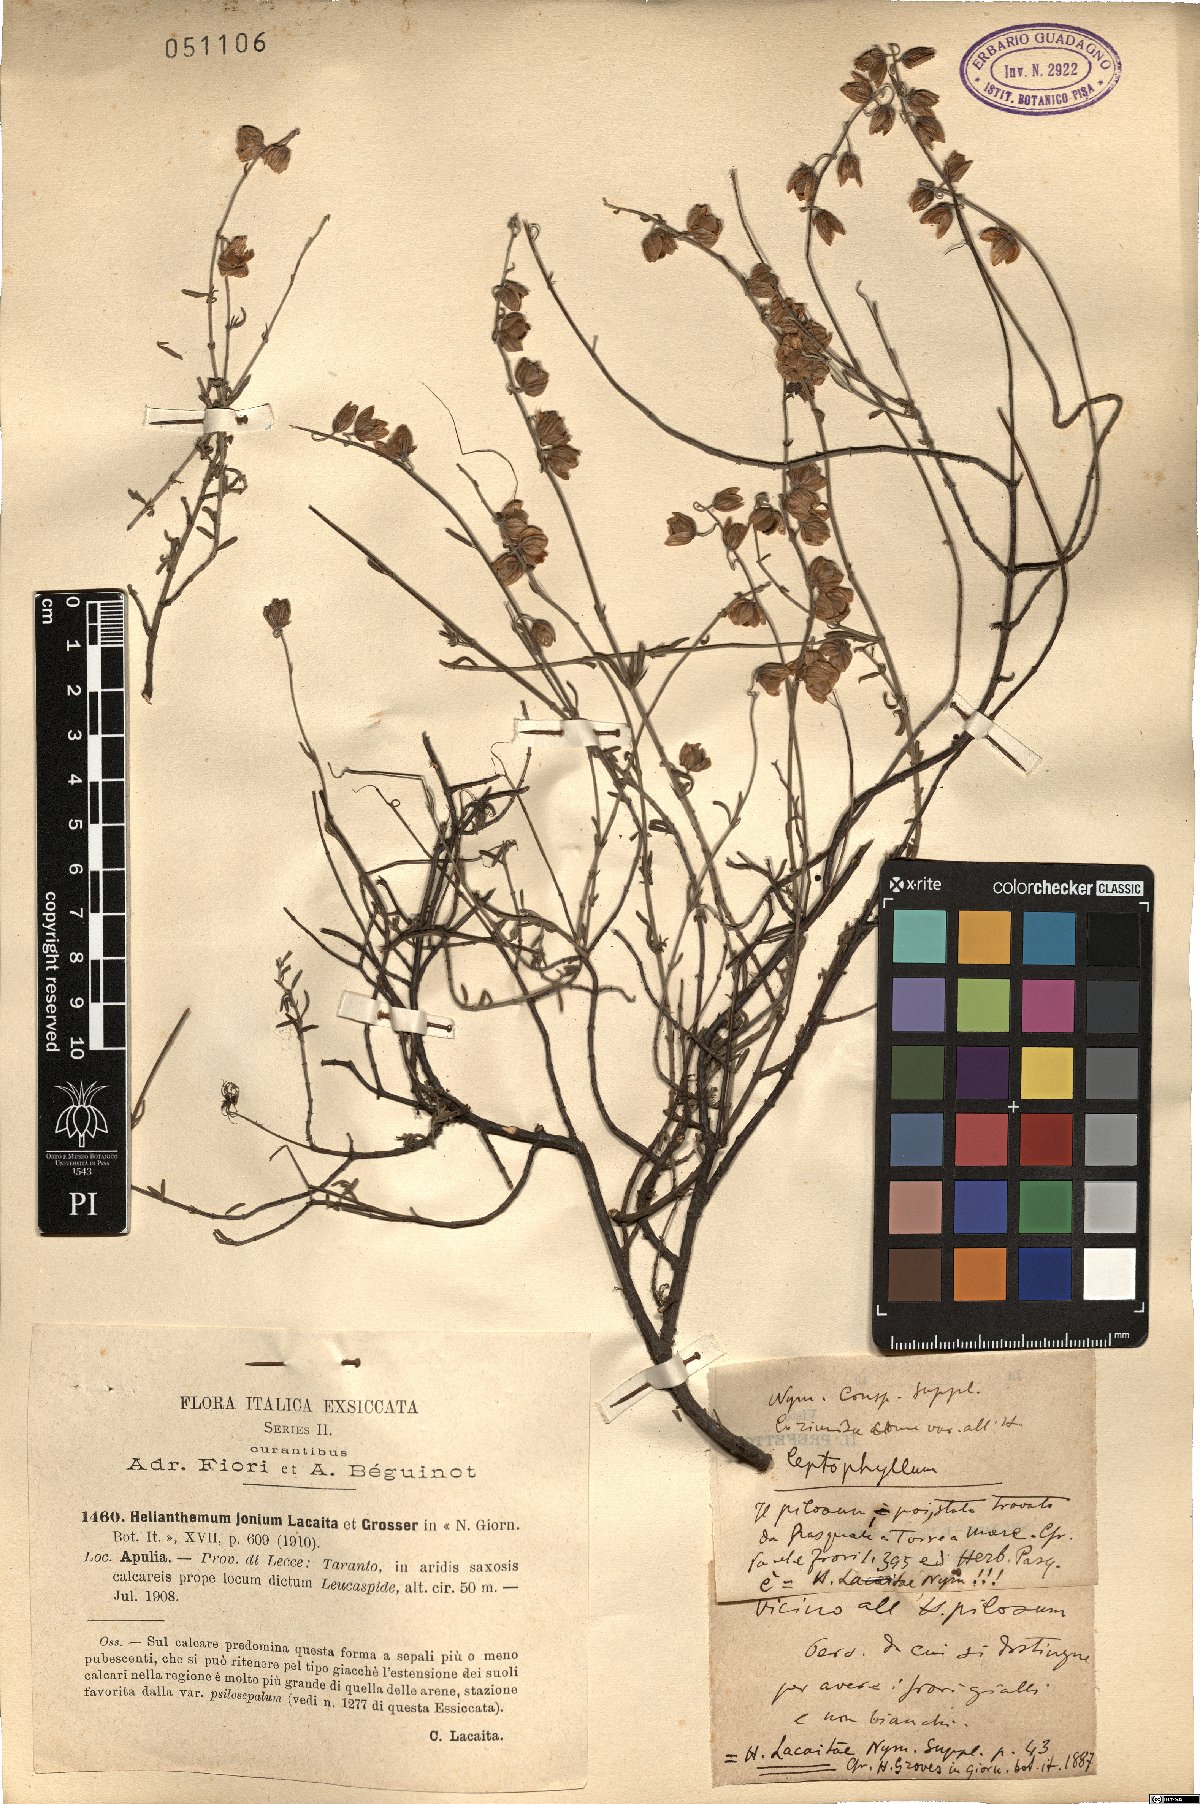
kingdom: Plantae
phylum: Tracheophyta
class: Magnoliopsida
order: Malvales
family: Cistaceae
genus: Helianthemum
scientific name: Helianthemum leptophyllum
